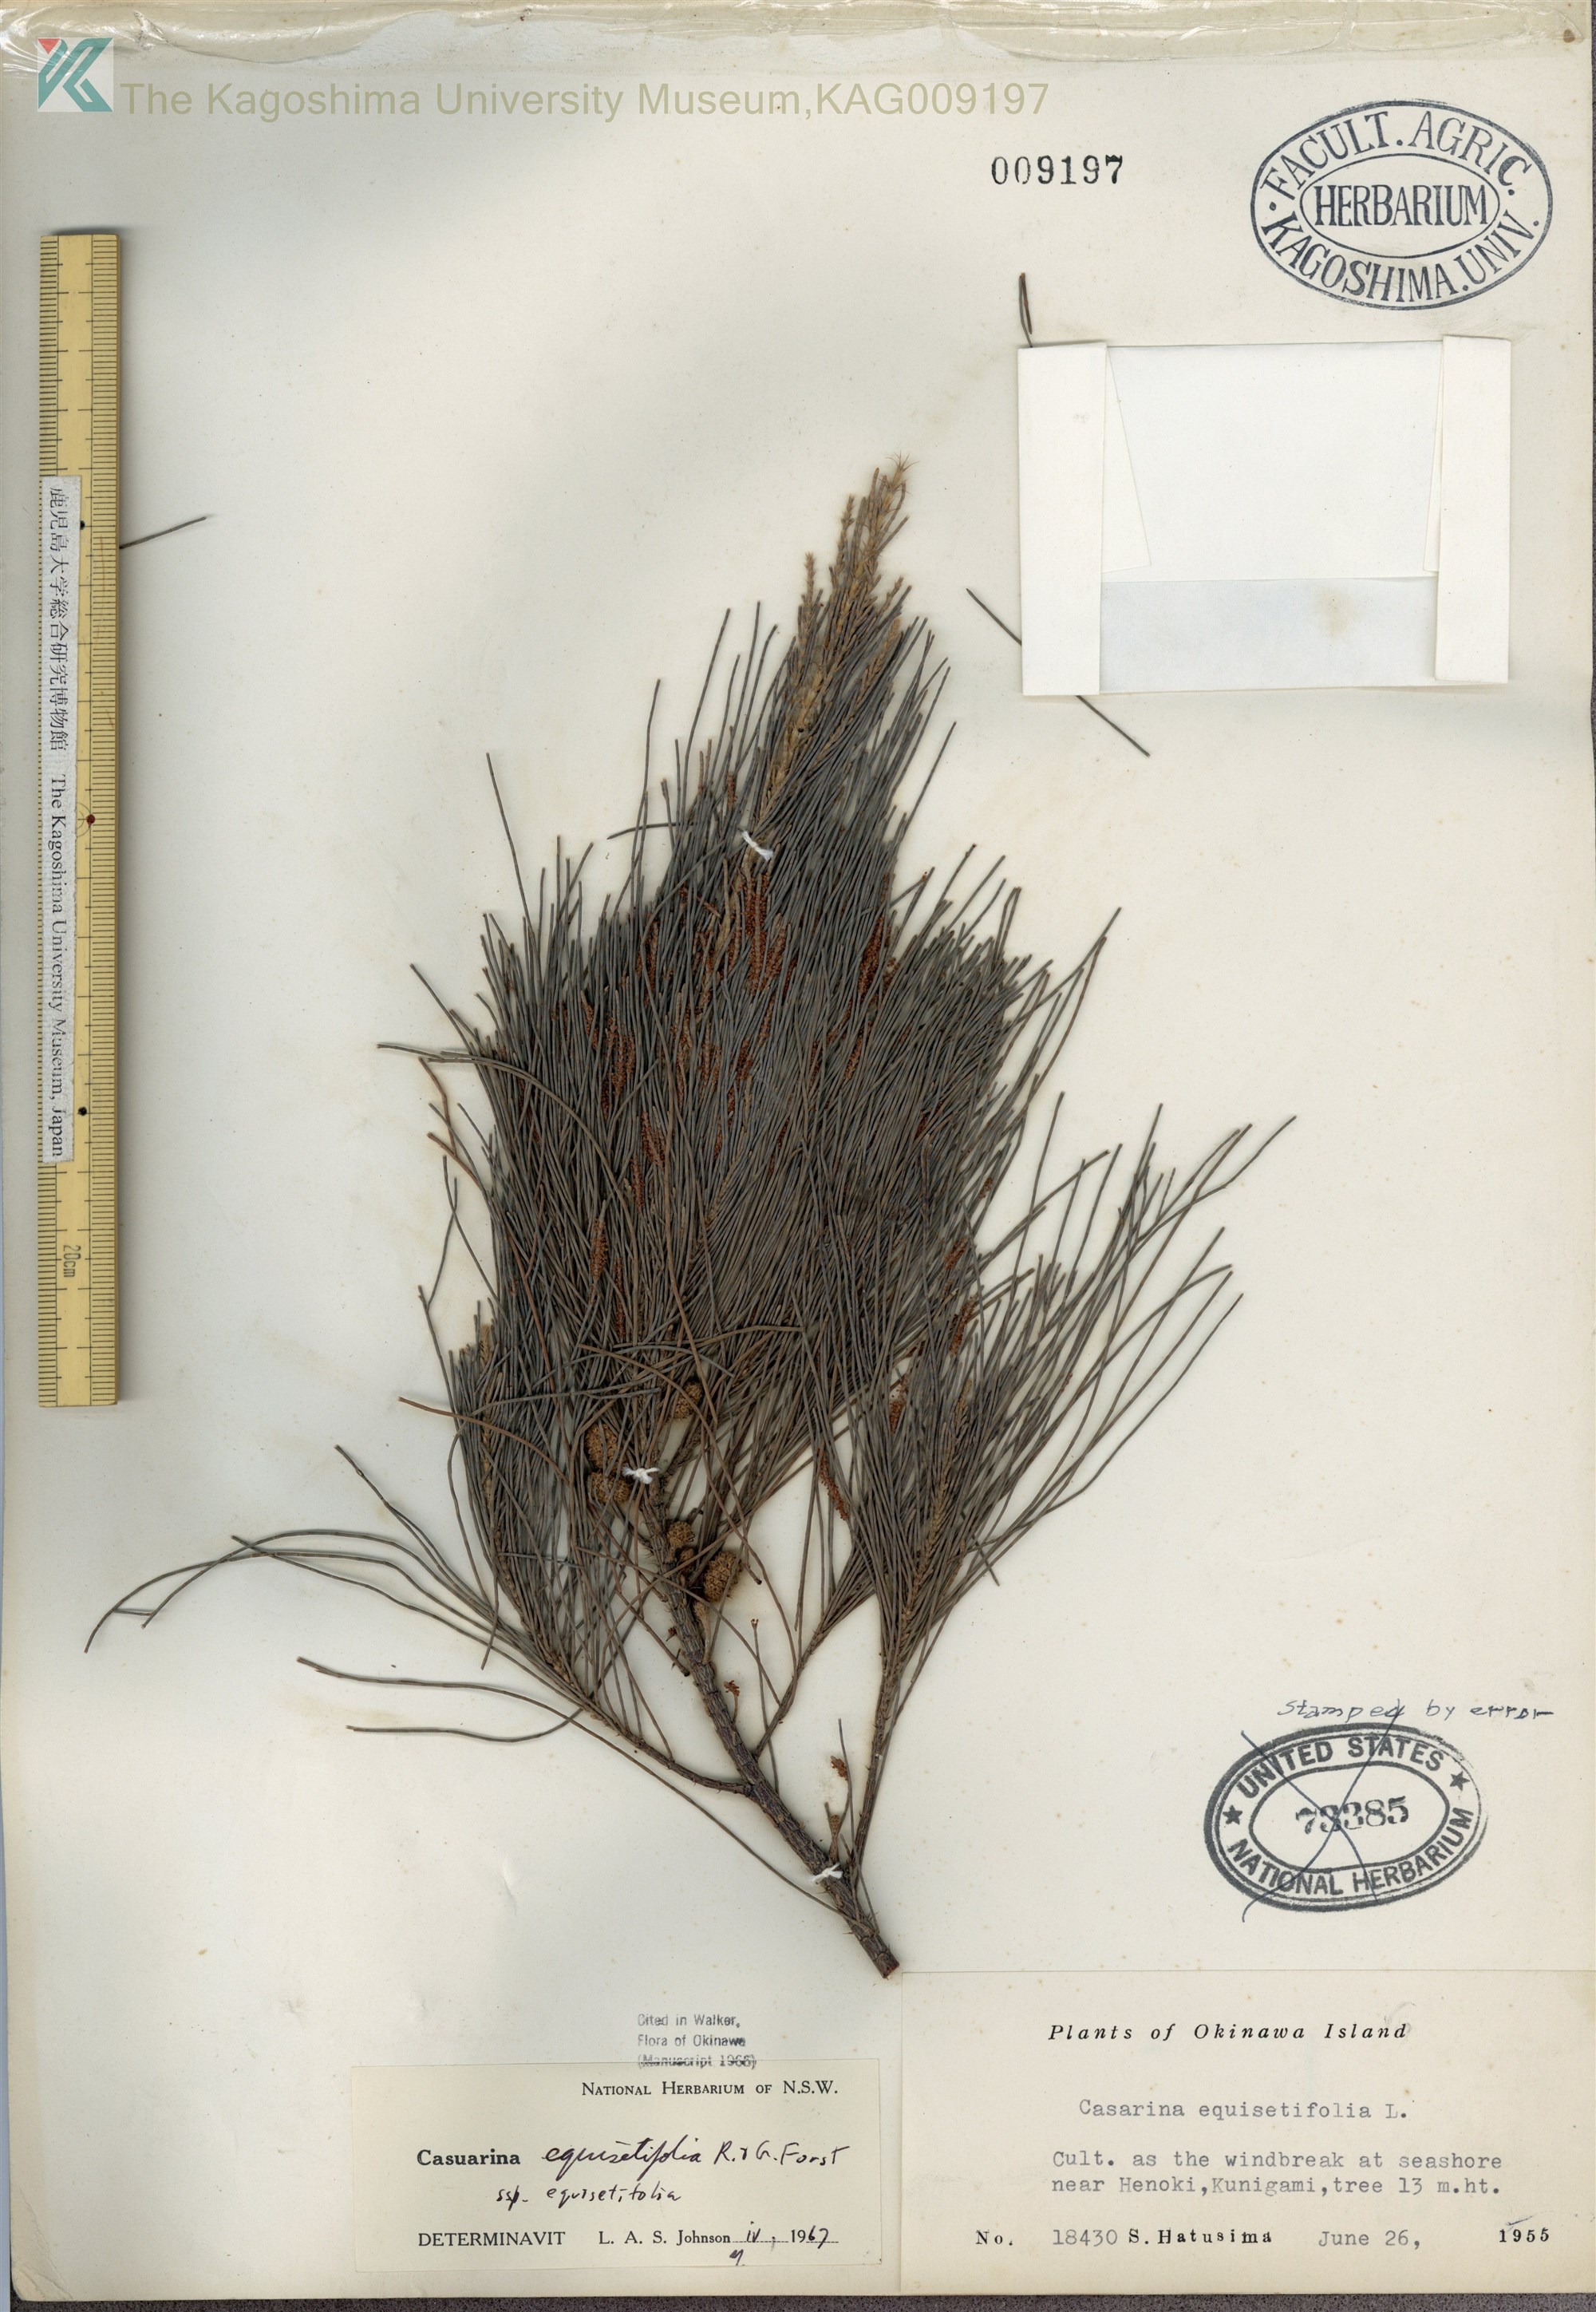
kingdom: Plantae
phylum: Tracheophyta
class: Magnoliopsida
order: Fagales
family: Casuarinaceae
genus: Casuarina
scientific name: Casuarina equisetifolia
